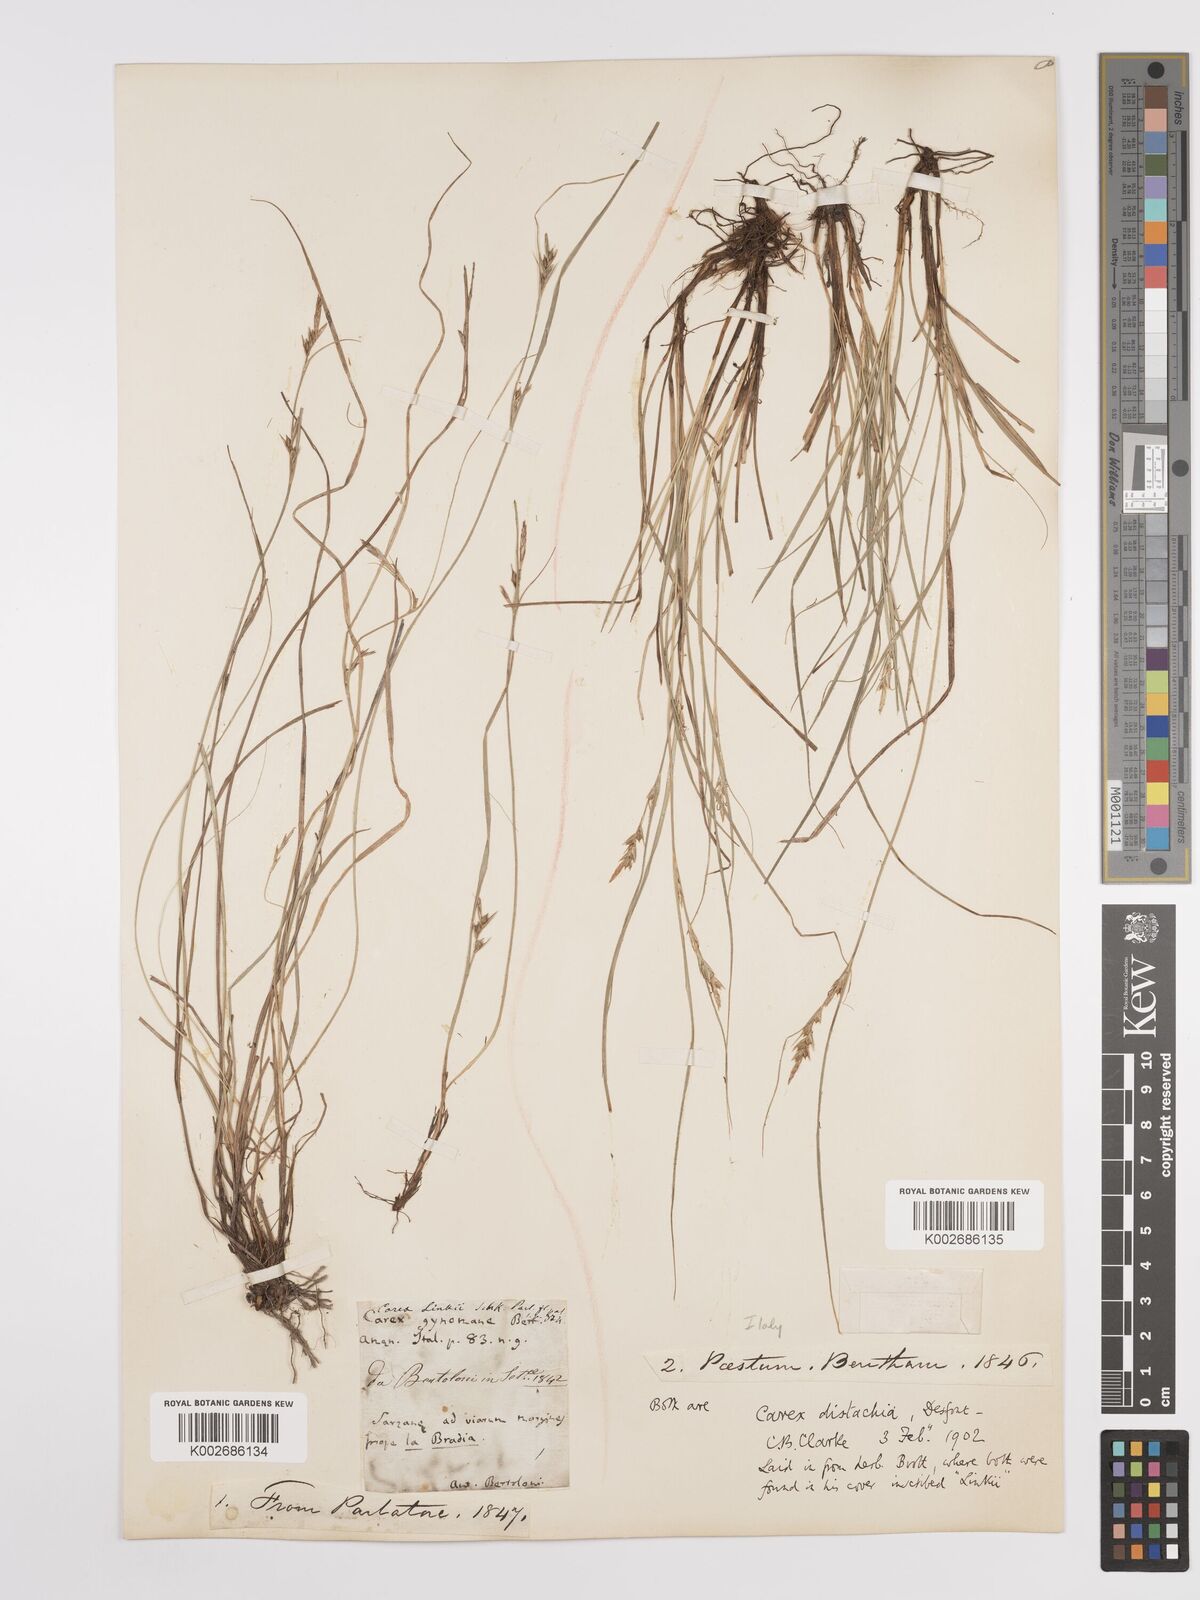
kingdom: Plantae
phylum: Tracheophyta
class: Liliopsida
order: Poales
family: Cyperaceae
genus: Carex
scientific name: Carex distachya
